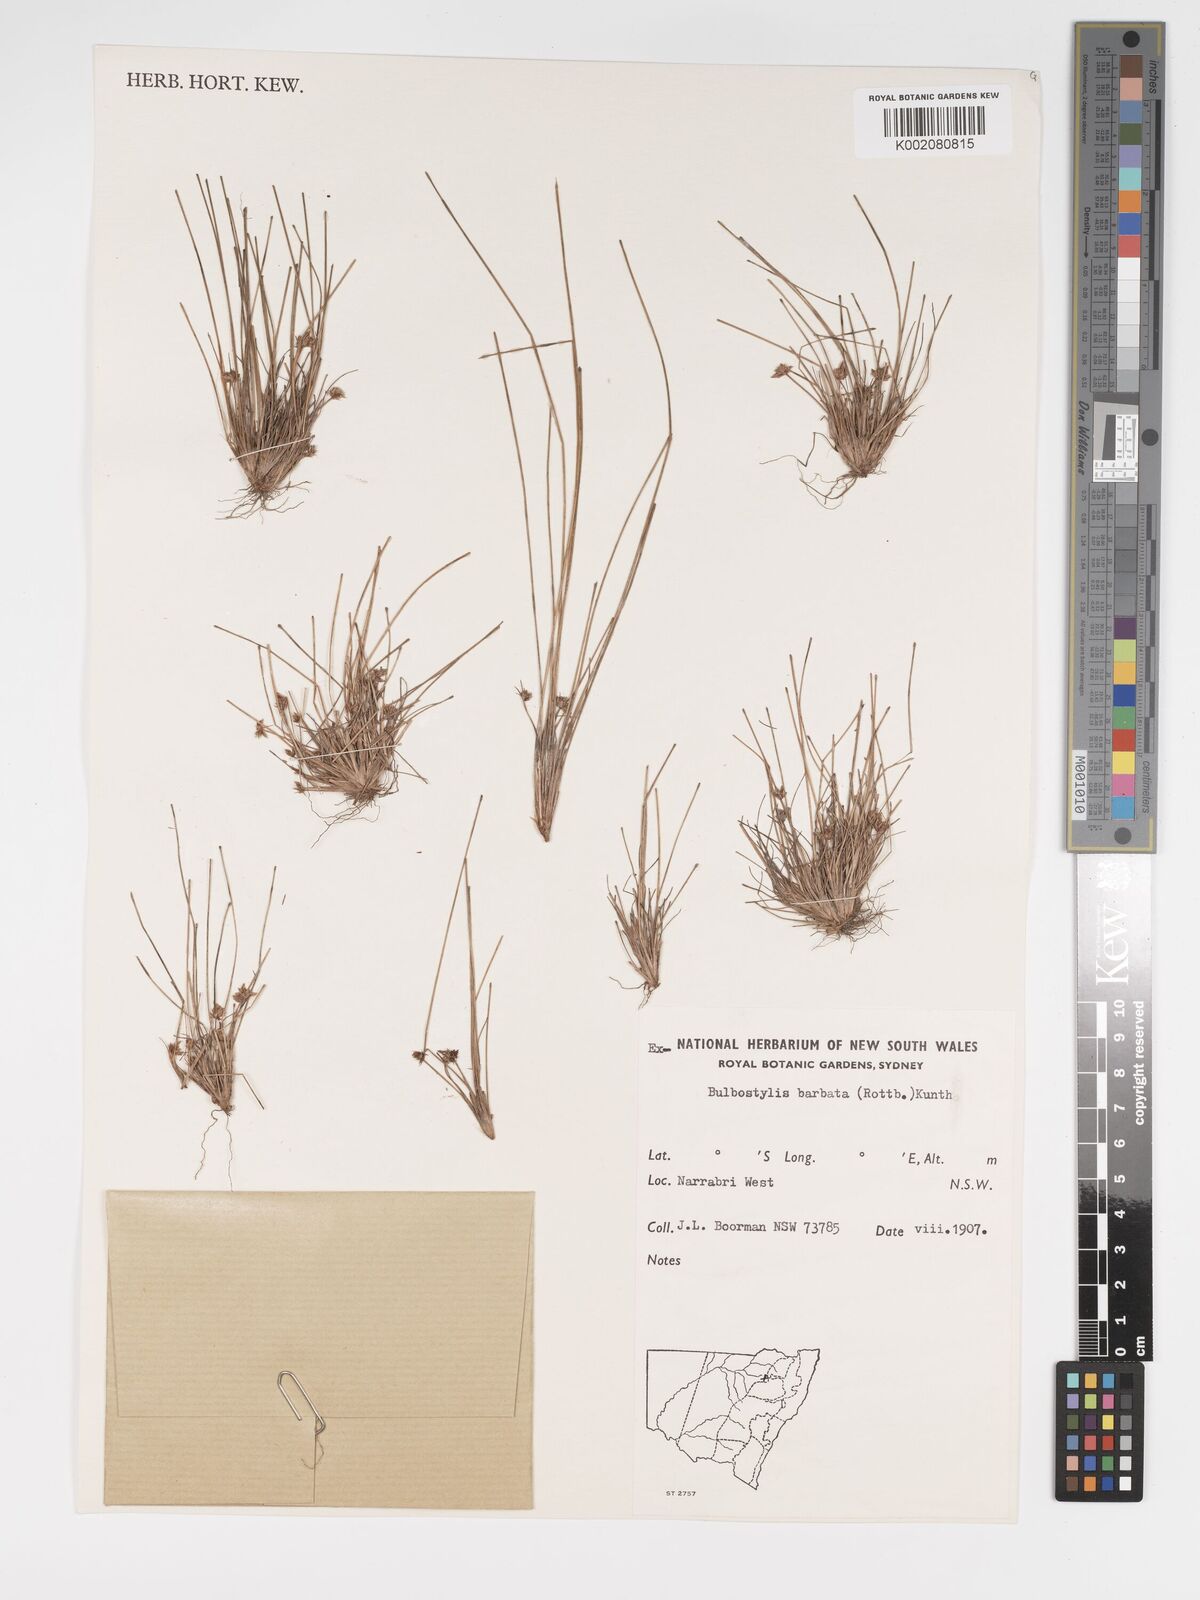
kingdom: Plantae
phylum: Tracheophyta
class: Liliopsida
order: Poales
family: Cyperaceae
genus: Bulbostylis
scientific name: Bulbostylis barbata
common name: Watergrass
